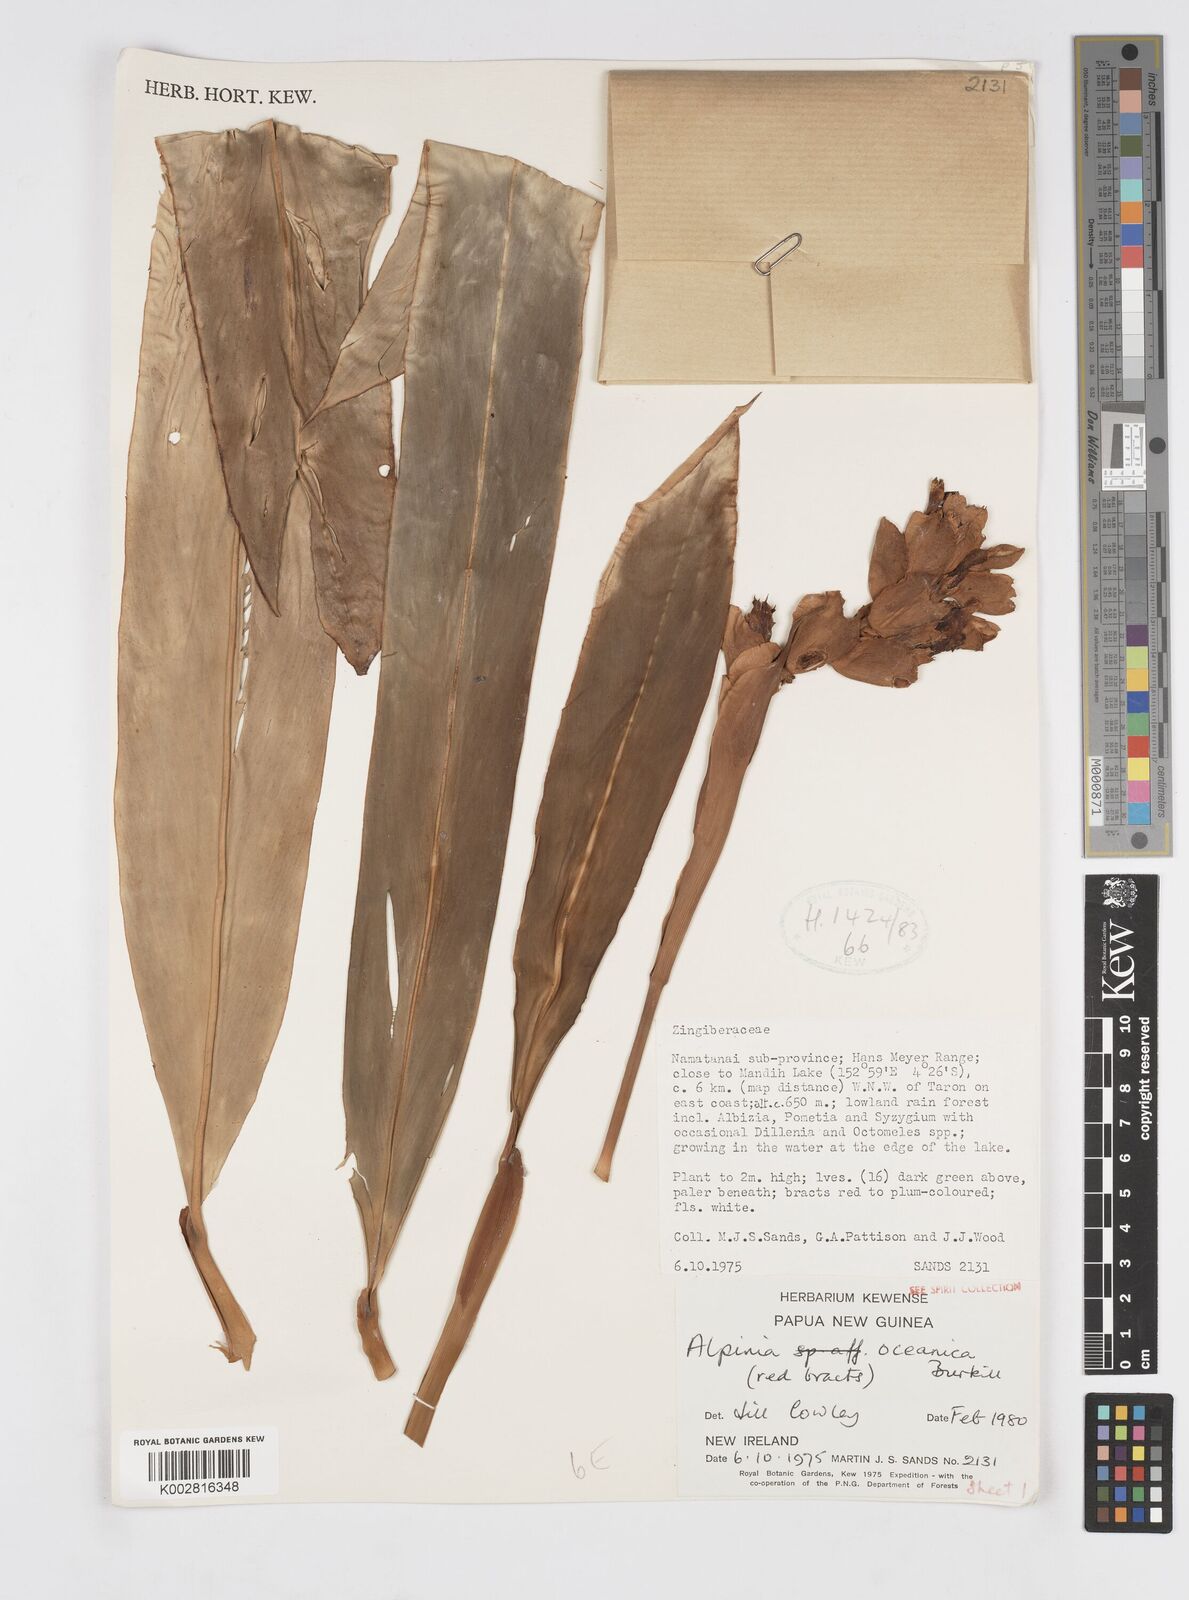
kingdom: Plantae
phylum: Tracheophyta
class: Liliopsida
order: Zingiberales
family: Zingiberaceae
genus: Alpinia
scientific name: Alpinia oceanica
